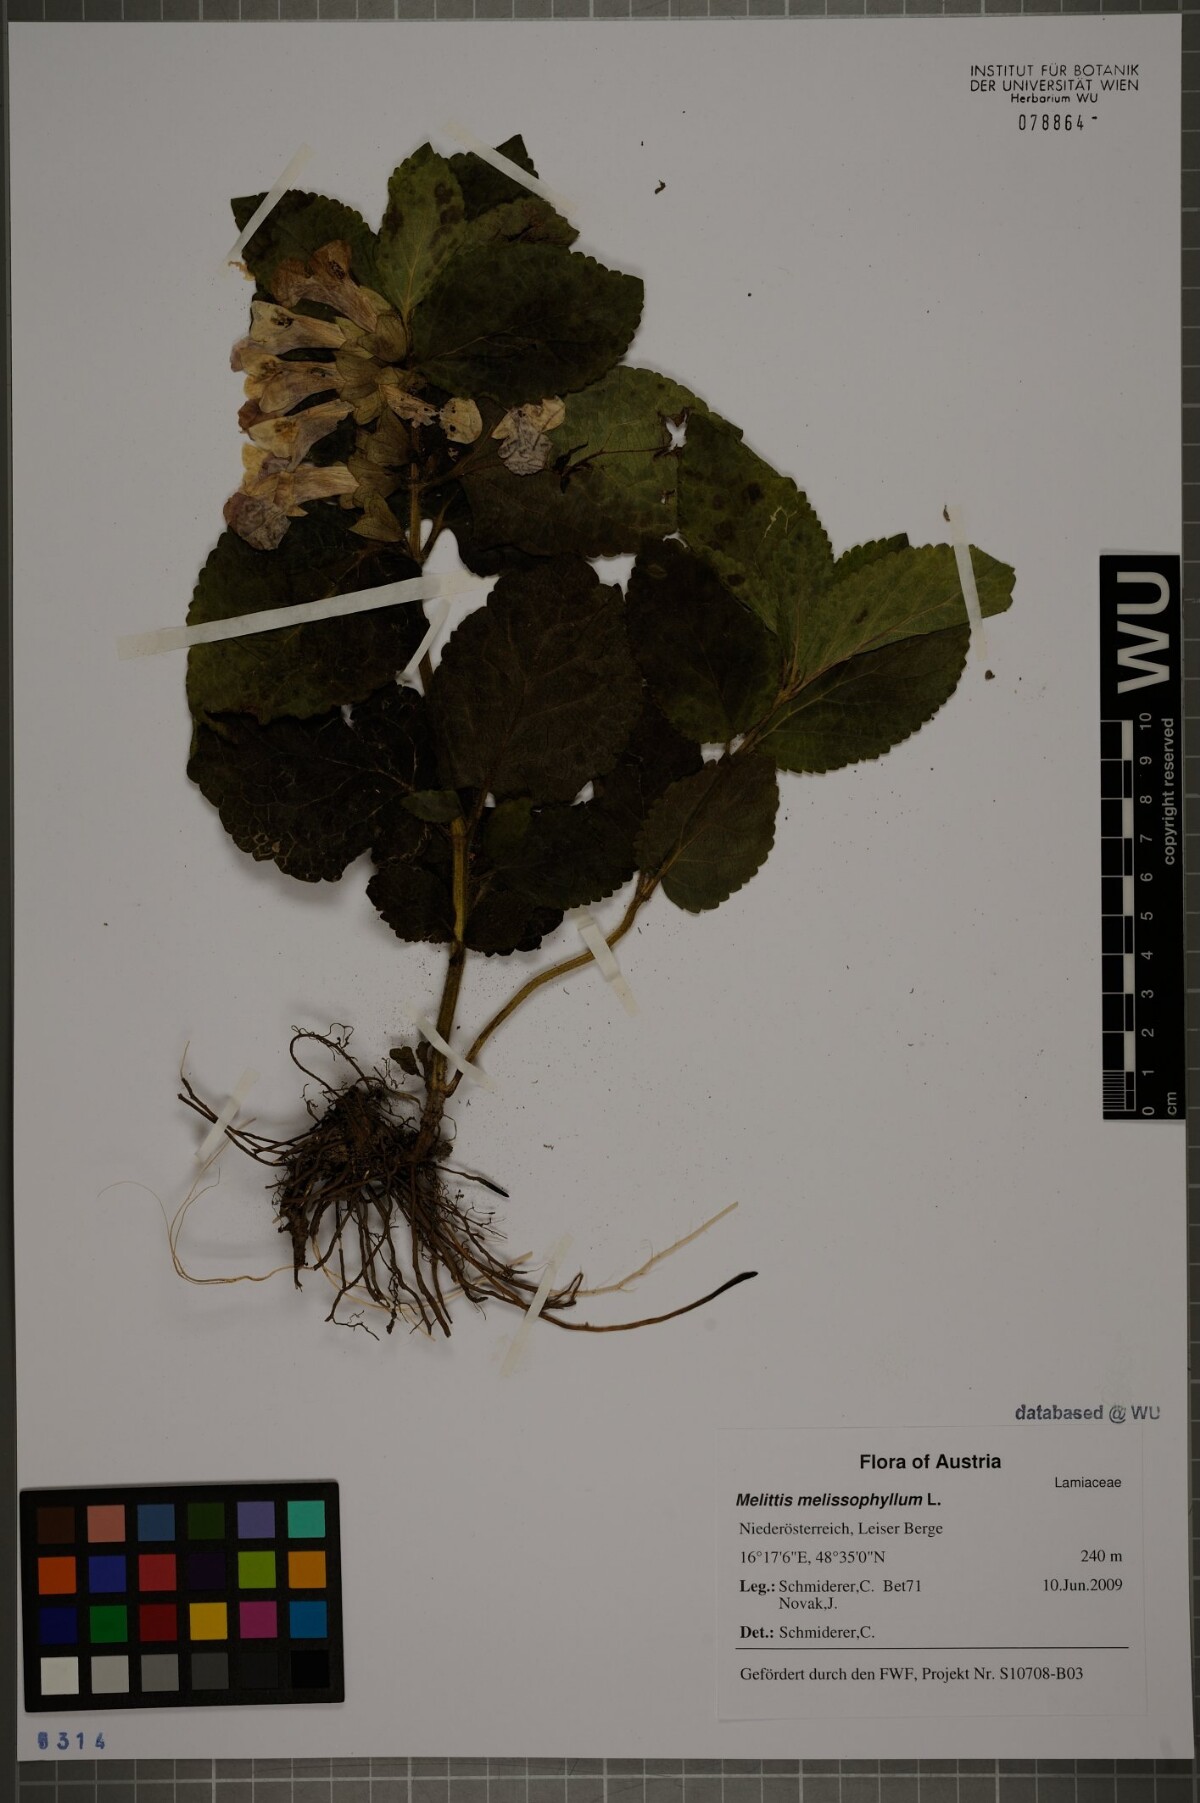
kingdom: Plantae
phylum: Tracheophyta
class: Magnoliopsida
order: Lamiales
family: Lamiaceae
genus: Melittis
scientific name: Melittis melissophyllum
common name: Bastard balm
